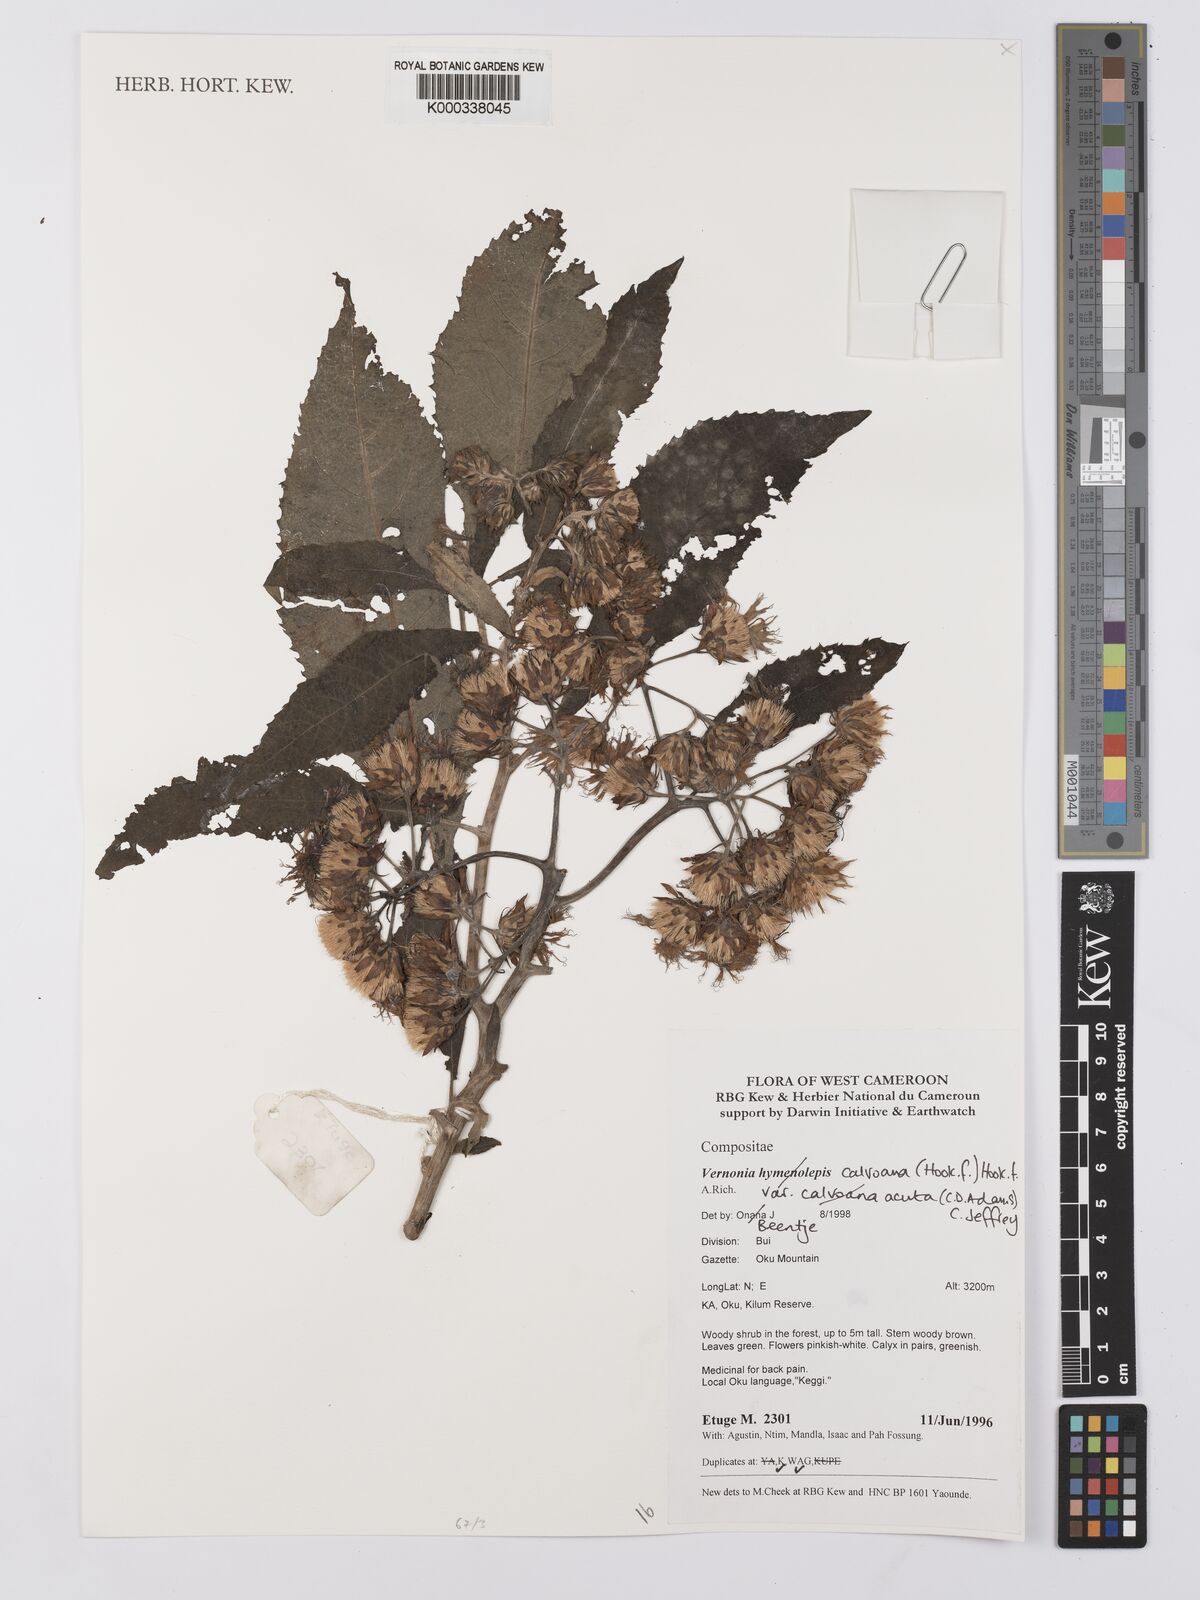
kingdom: Plantae
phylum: Tracheophyta
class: Magnoliopsida
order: Asterales
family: Asteraceae
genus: Baccharoides
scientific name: Baccharoides hymenolepis
